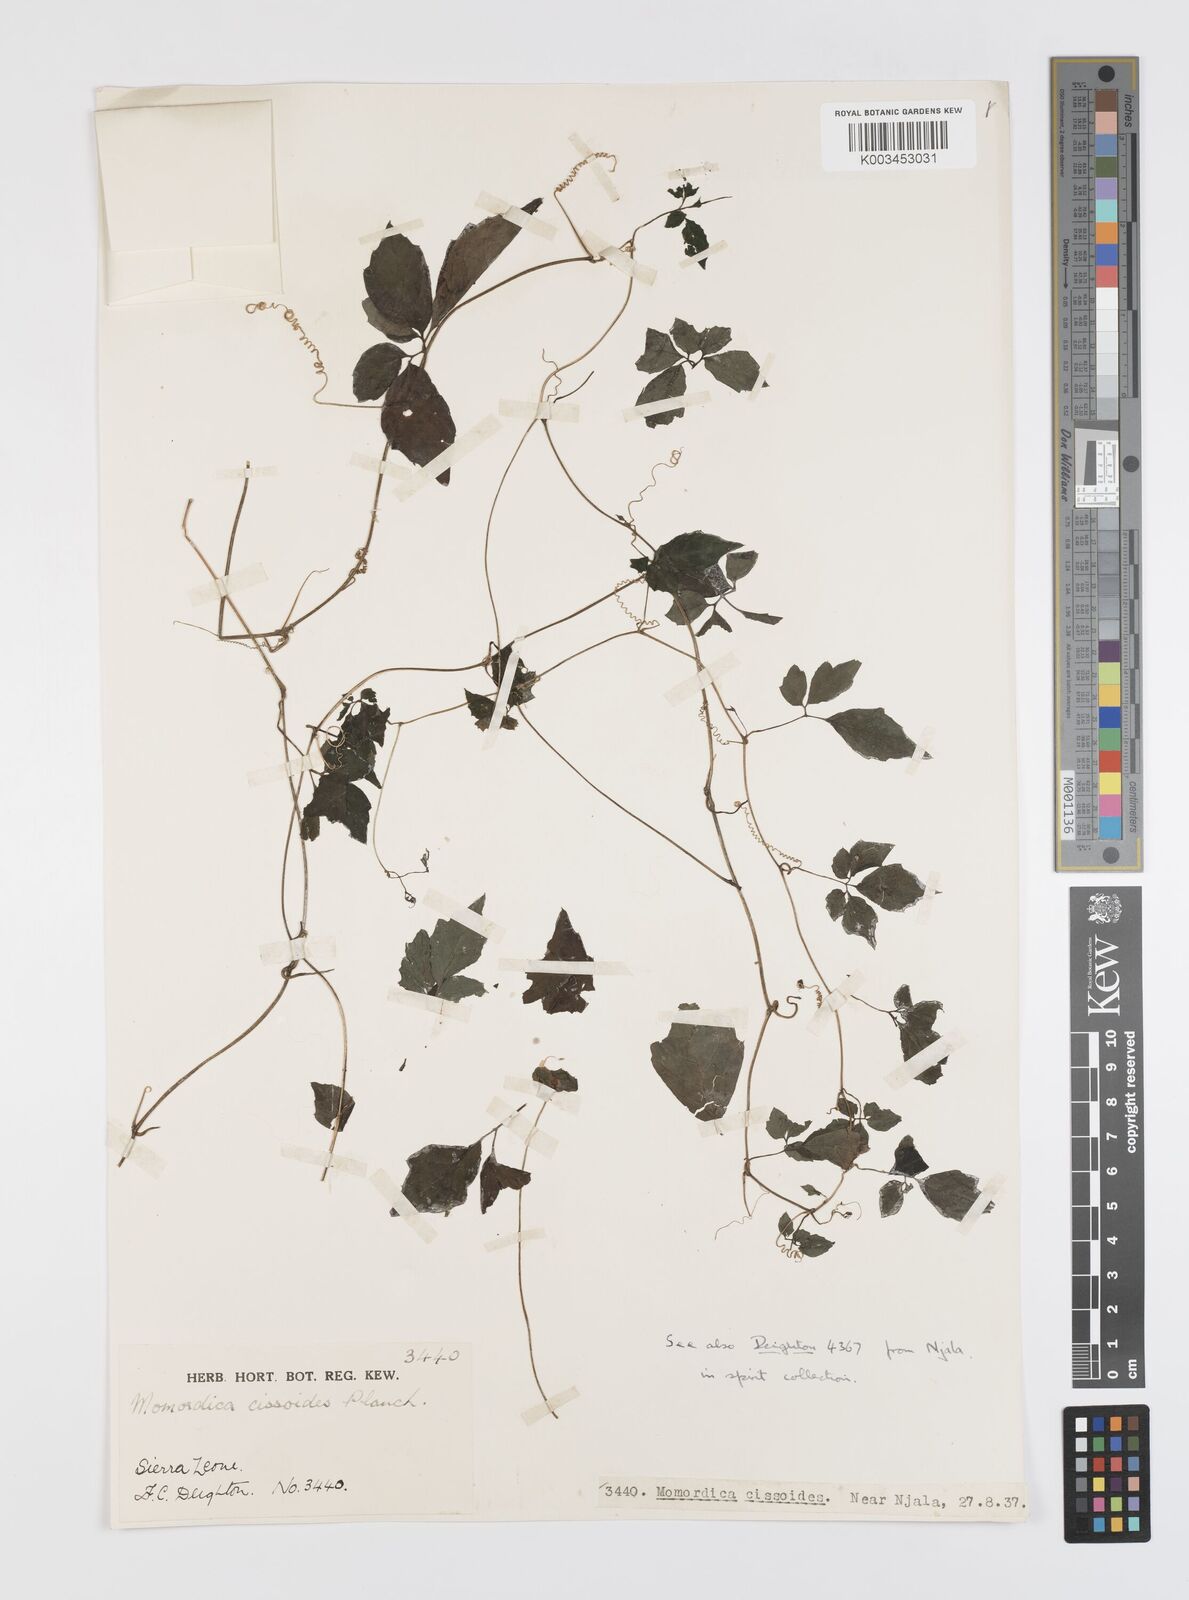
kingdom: Plantae
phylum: Tracheophyta
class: Magnoliopsida
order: Cucurbitales
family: Cucurbitaceae
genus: Momordica
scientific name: Momordica cissoides
